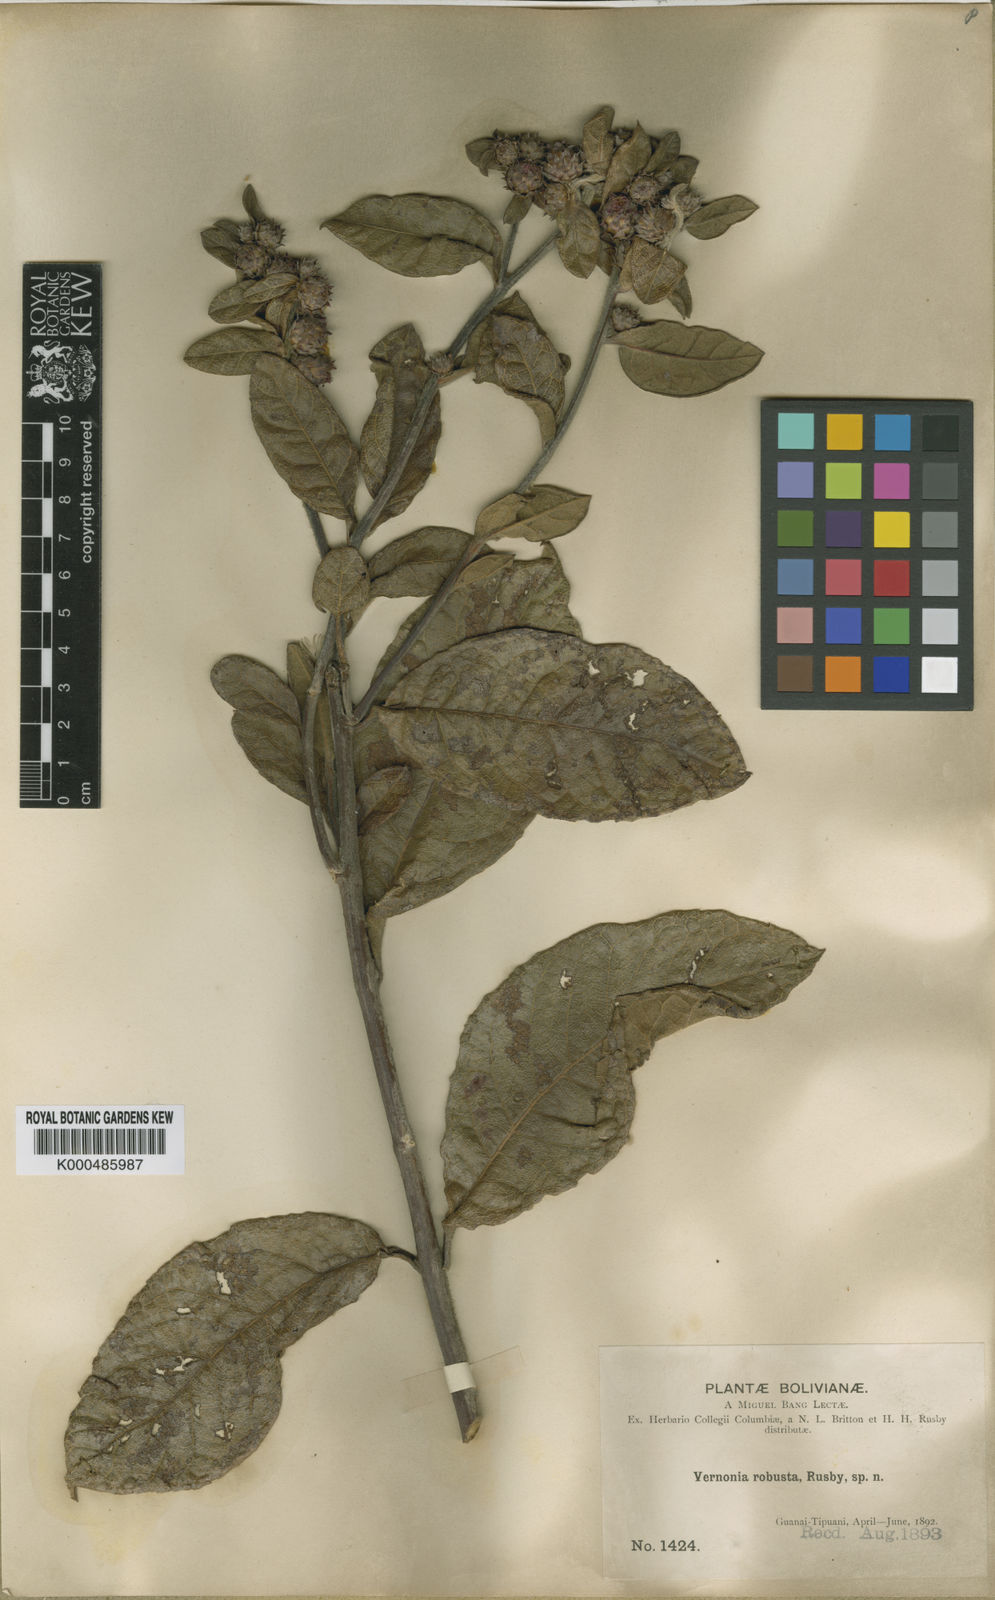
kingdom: Plantae
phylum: Tracheophyta
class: Magnoliopsida
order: Asterales
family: Asteraceae
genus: Lessingianthus
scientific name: Lessingianthus robustus
